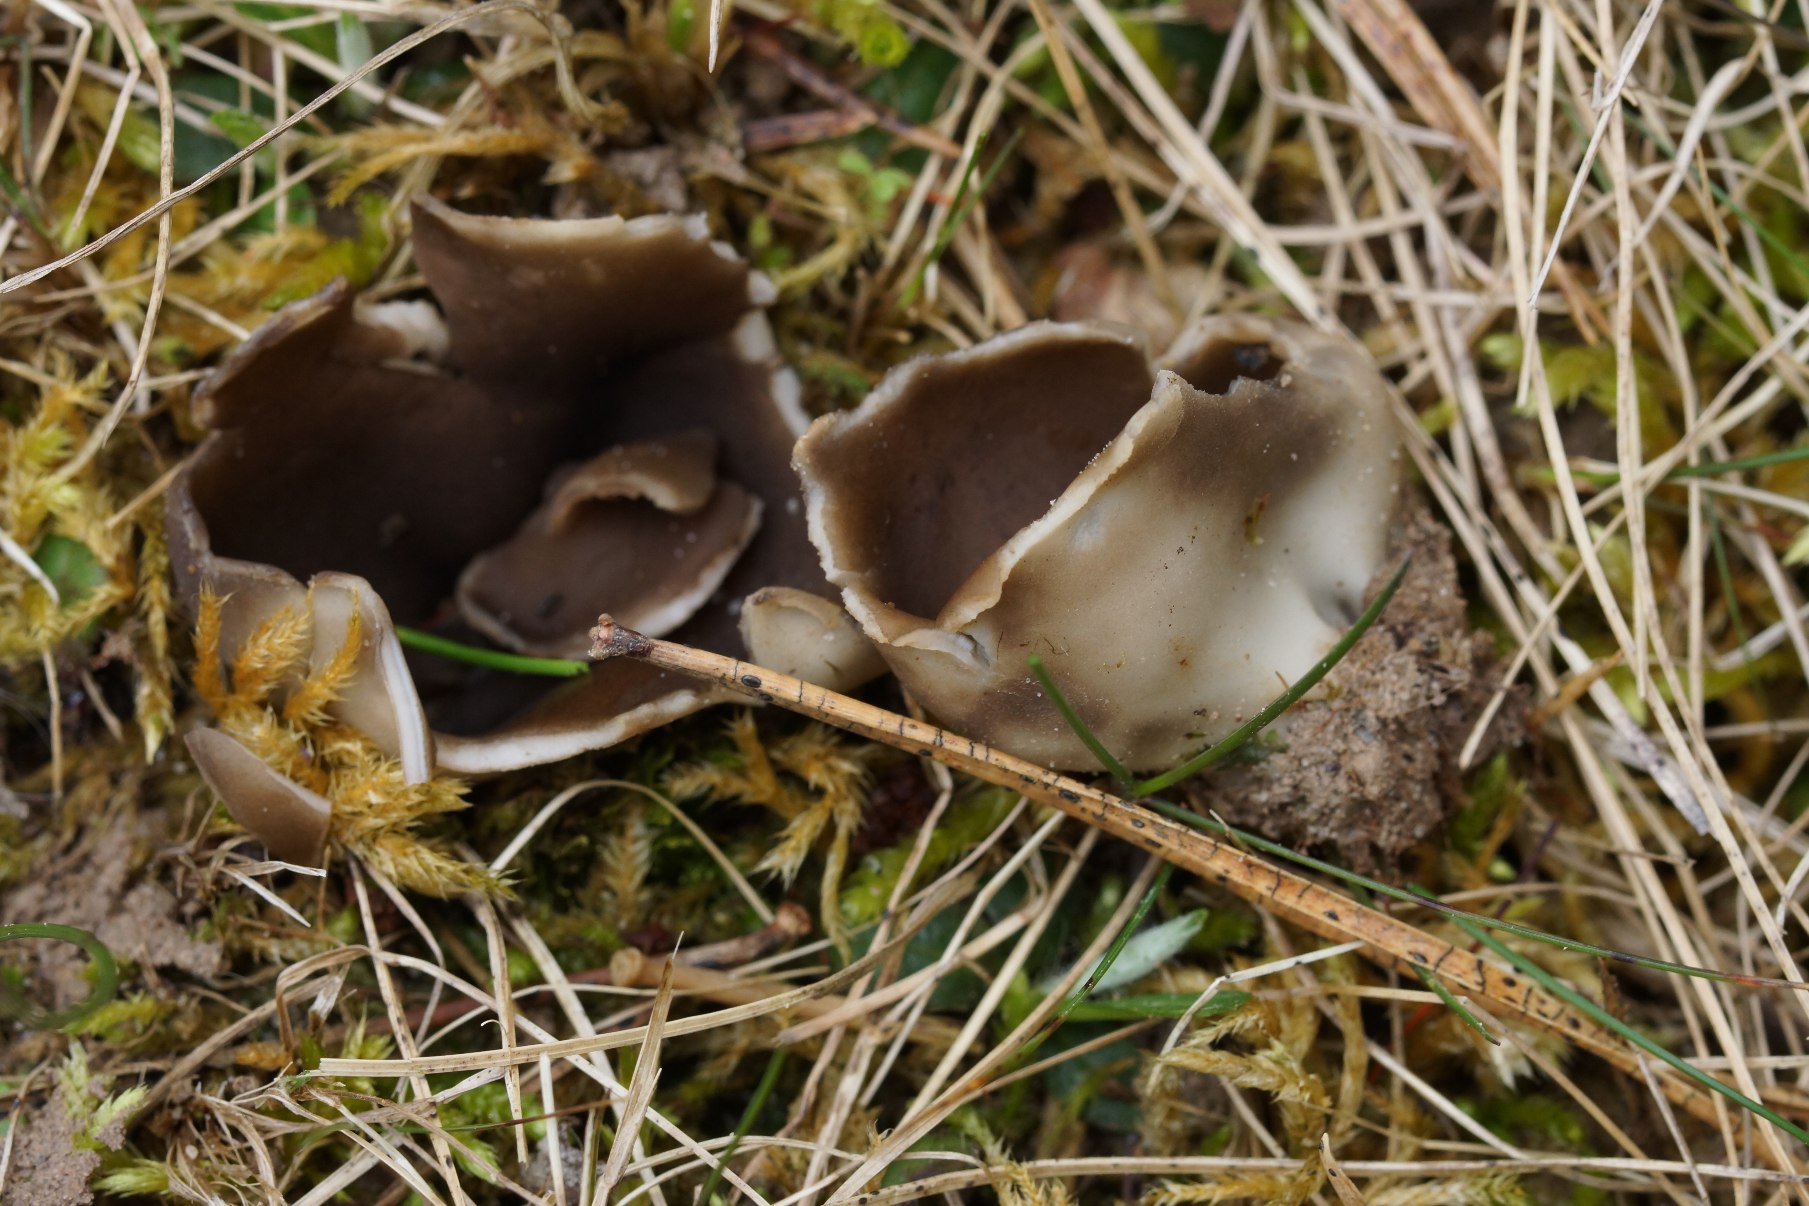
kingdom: Fungi
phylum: Ascomycota
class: Pezizomycetes
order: Pezizales
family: Helvellaceae
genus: Dissingia
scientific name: Dissingia leucomelaena
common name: Sorthvid foldhat
